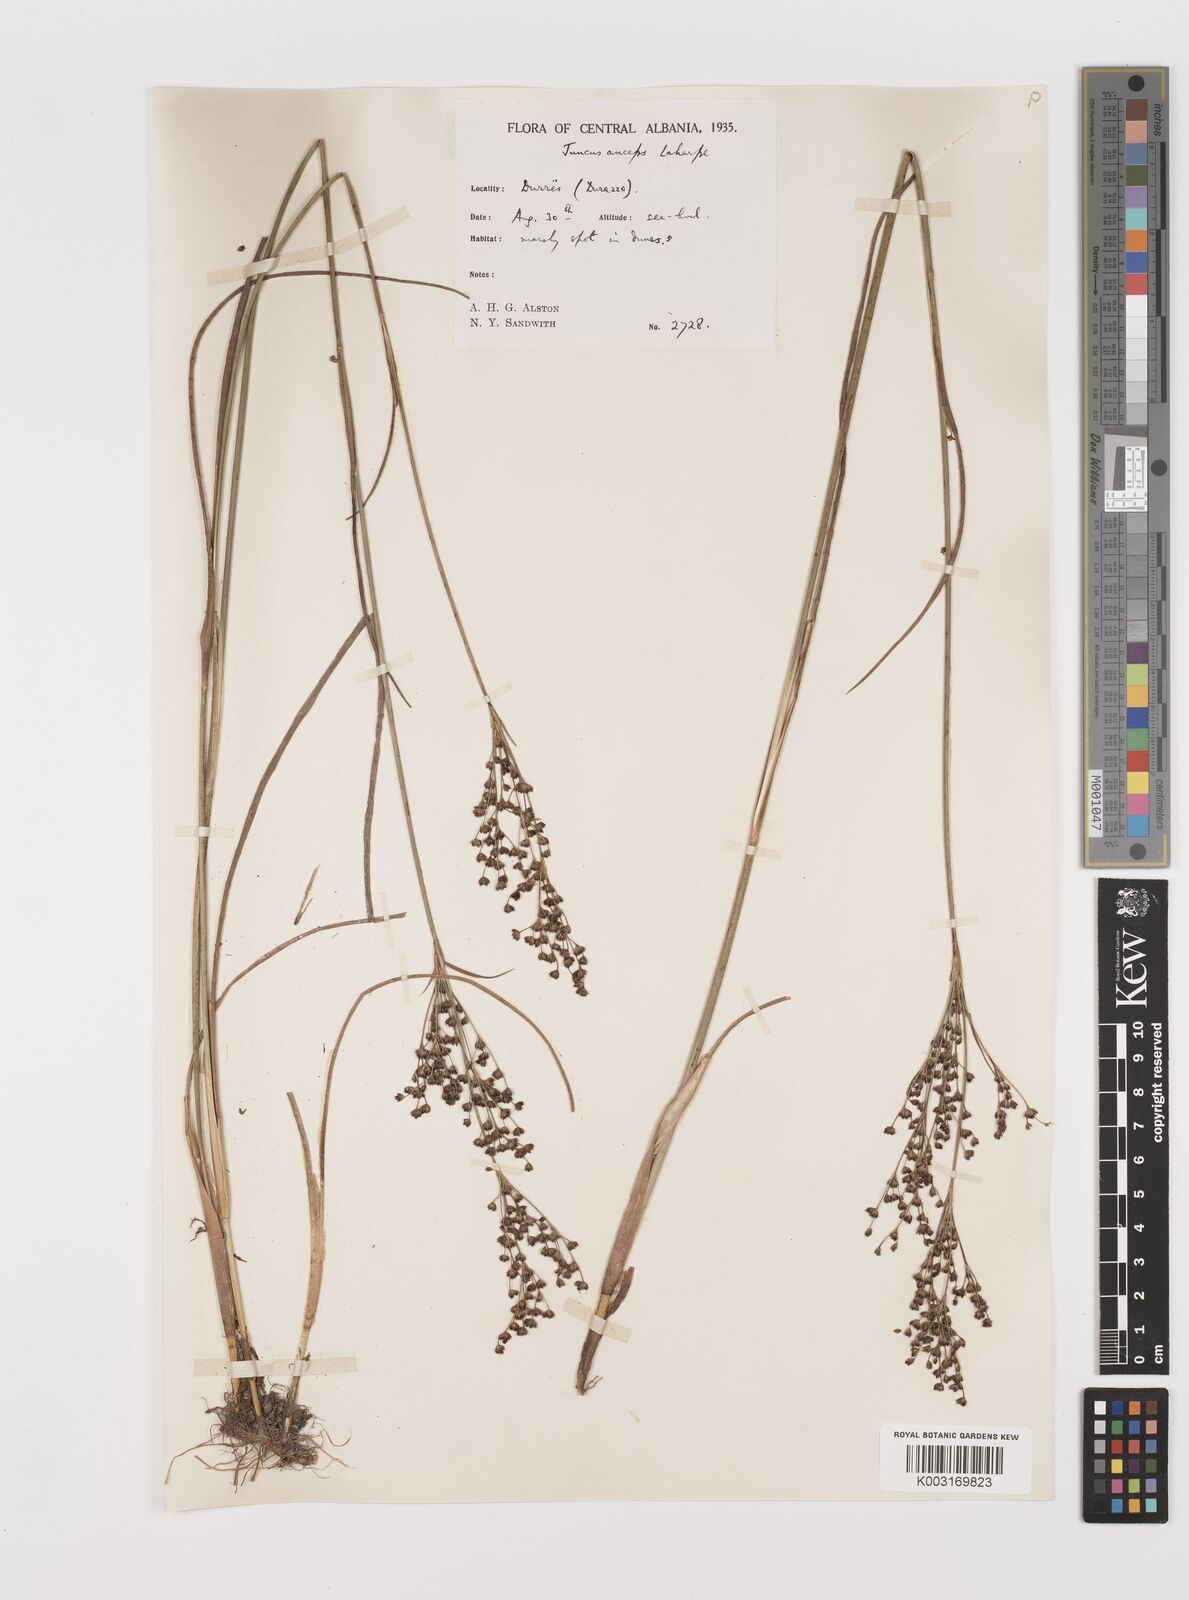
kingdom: Plantae
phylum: Tracheophyta
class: Liliopsida
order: Poales
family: Juncaceae
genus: Juncus
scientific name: Juncus anceps
